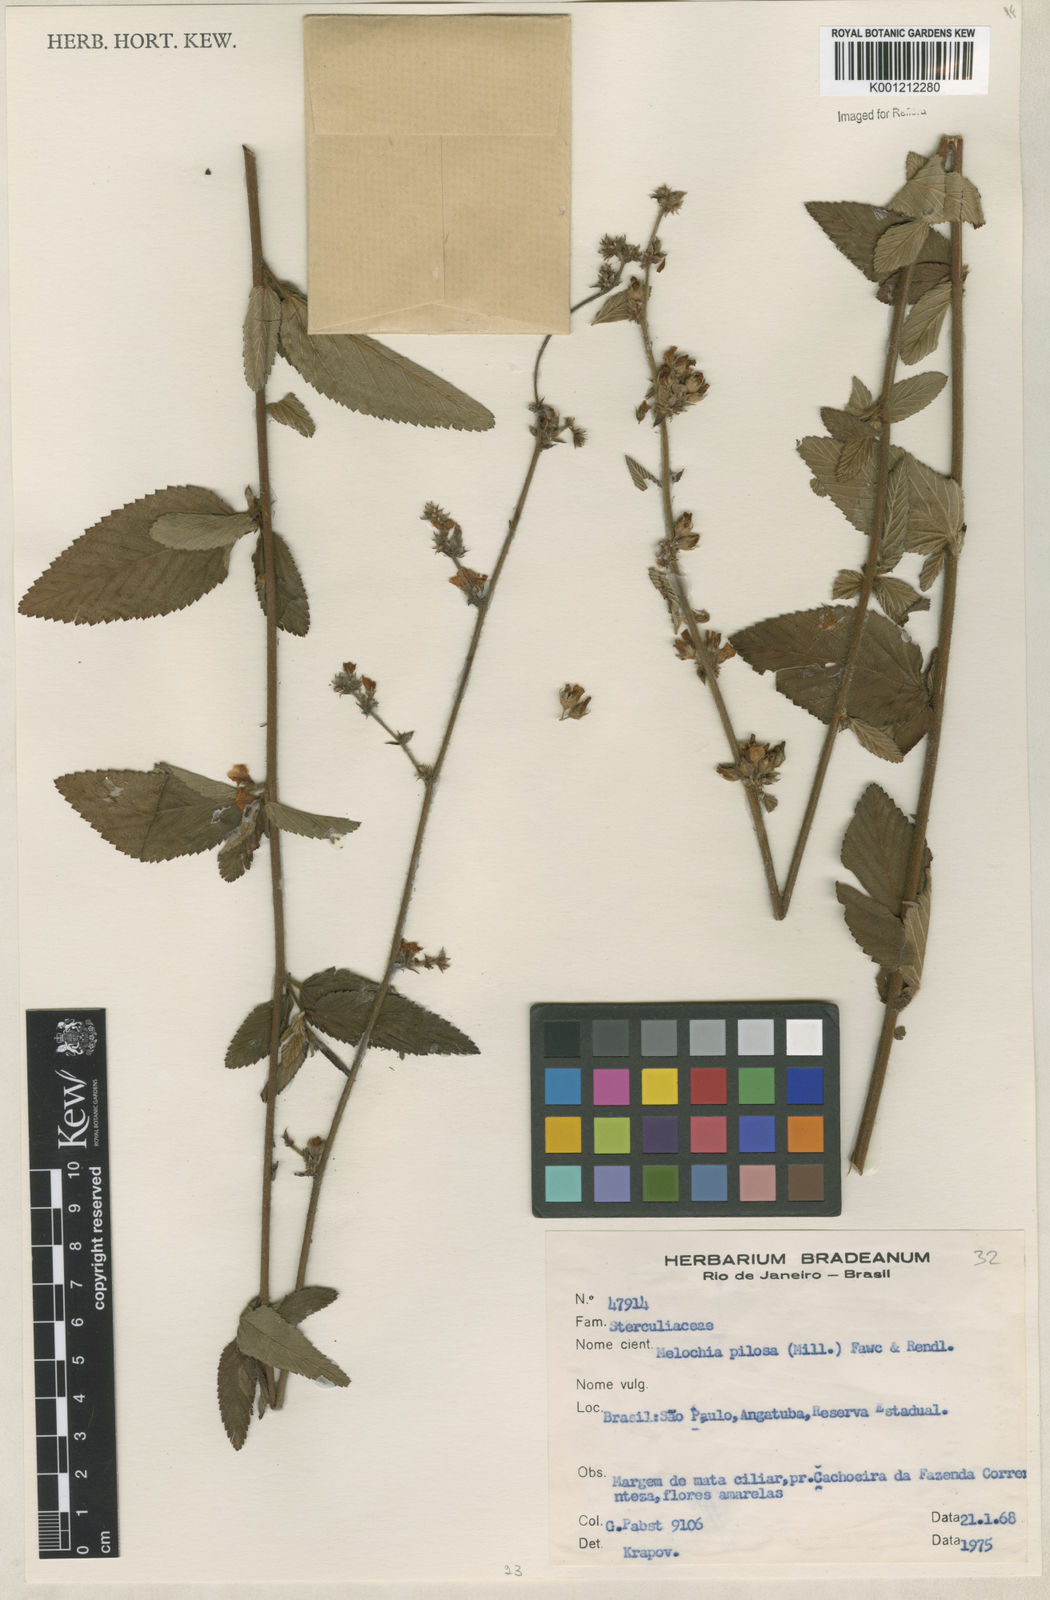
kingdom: Plantae
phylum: Tracheophyta
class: Magnoliopsida
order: Malvales
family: Malvaceae
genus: Melochia
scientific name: Melochia pilosa
